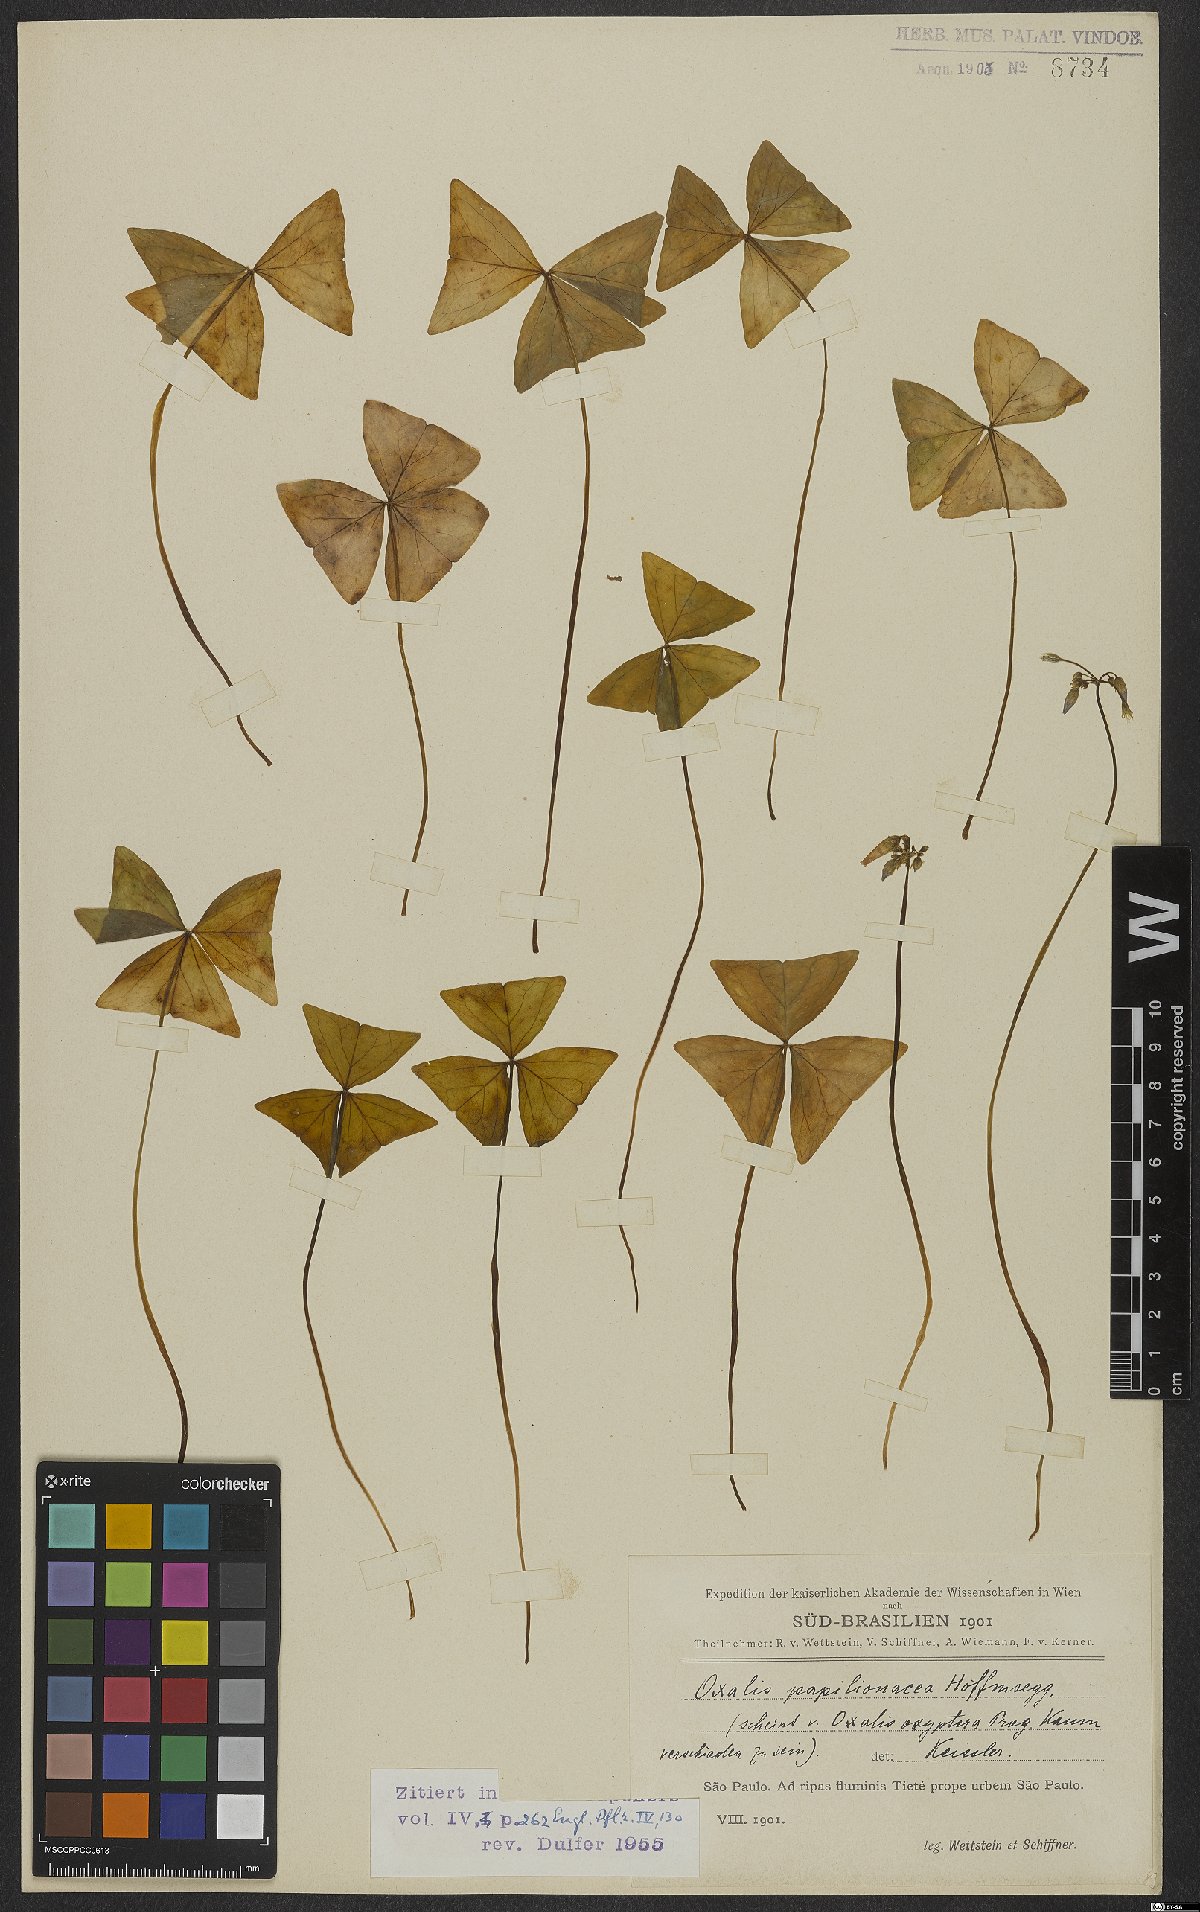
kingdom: Plantae
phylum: Tracheophyta
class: Magnoliopsida
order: Oxalidales
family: Oxalidaceae
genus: Oxalis
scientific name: Oxalis triangularis
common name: Wood sorrel
